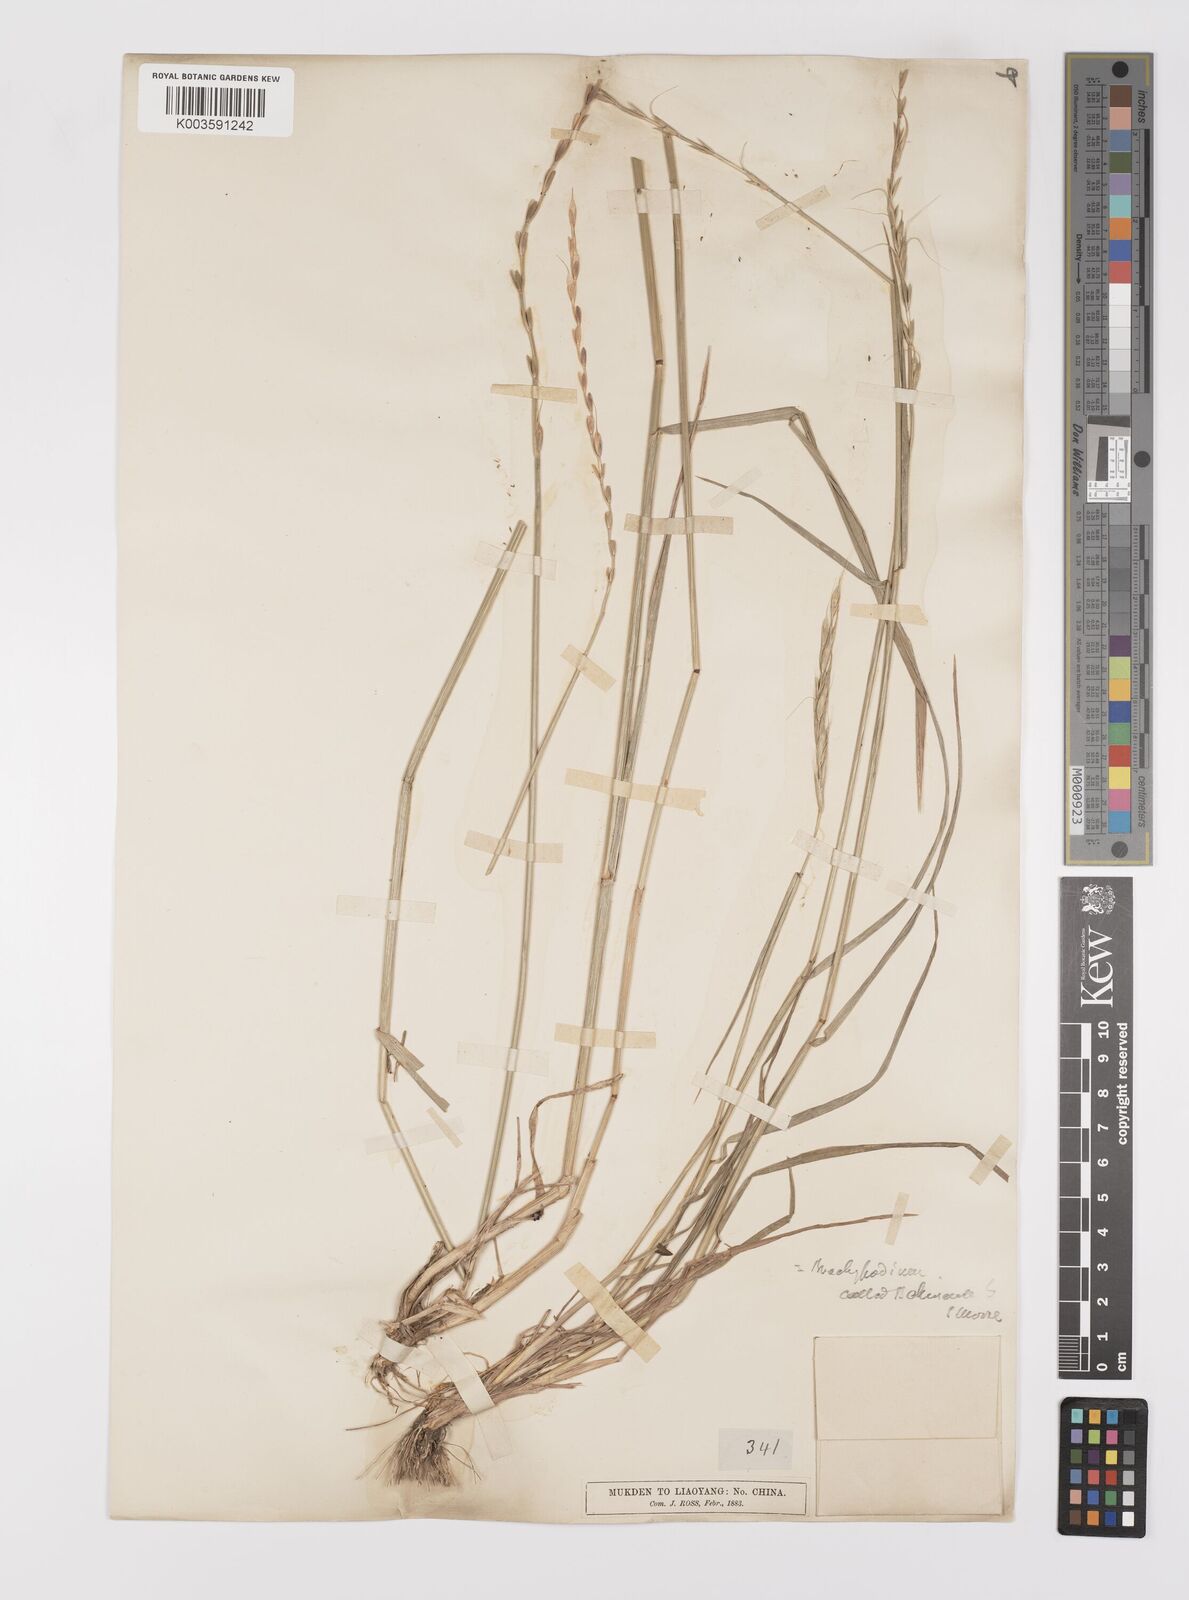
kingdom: Plantae
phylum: Tracheophyta
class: Liliopsida
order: Poales
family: Poaceae
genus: Leymus
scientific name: Leymus chinensis
